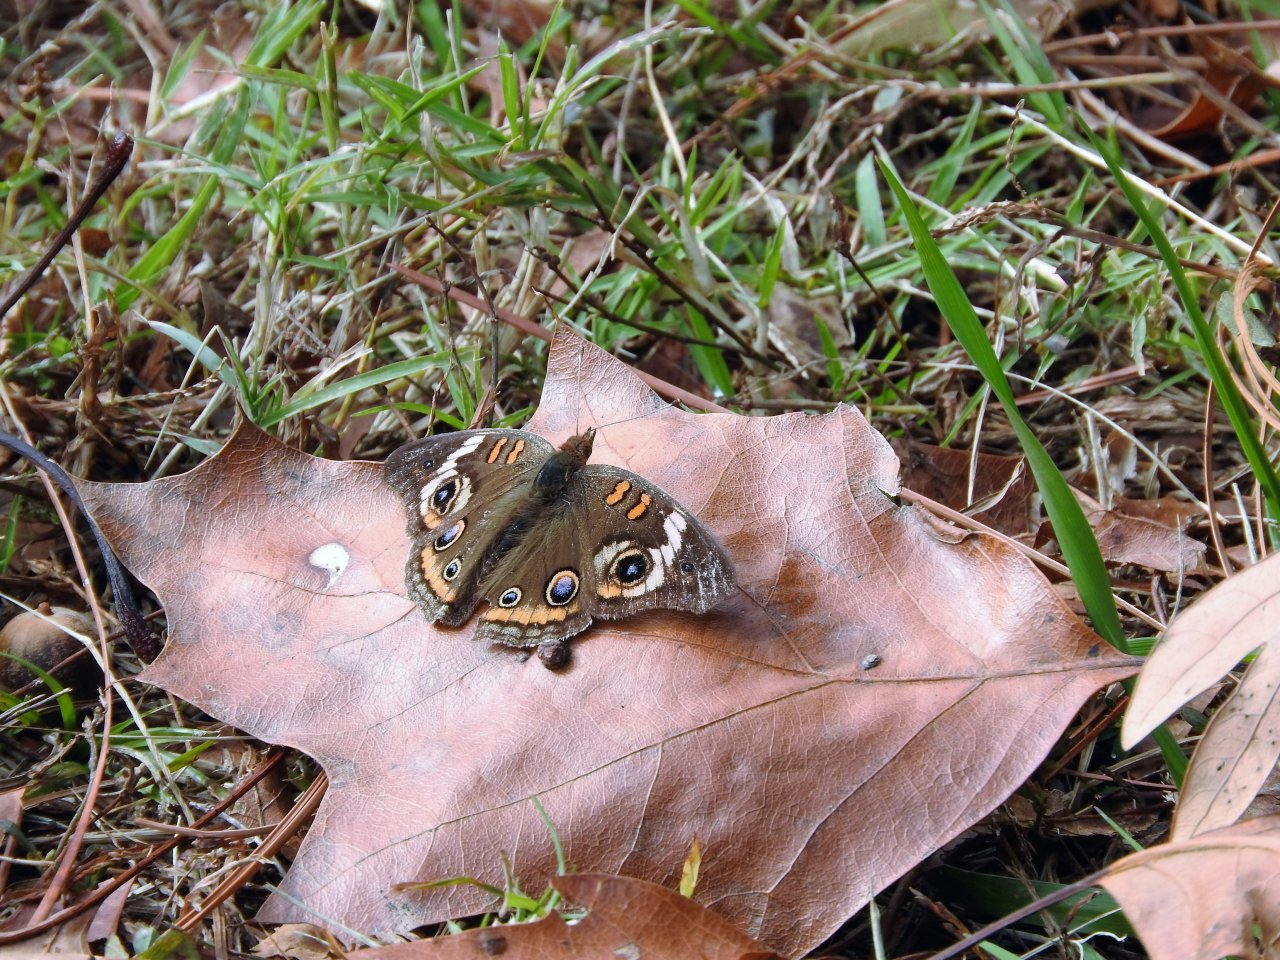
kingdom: Animalia
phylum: Arthropoda
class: Insecta
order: Lepidoptera
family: Nymphalidae
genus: Junonia
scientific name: Junonia coenia
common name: Common Buckeye
